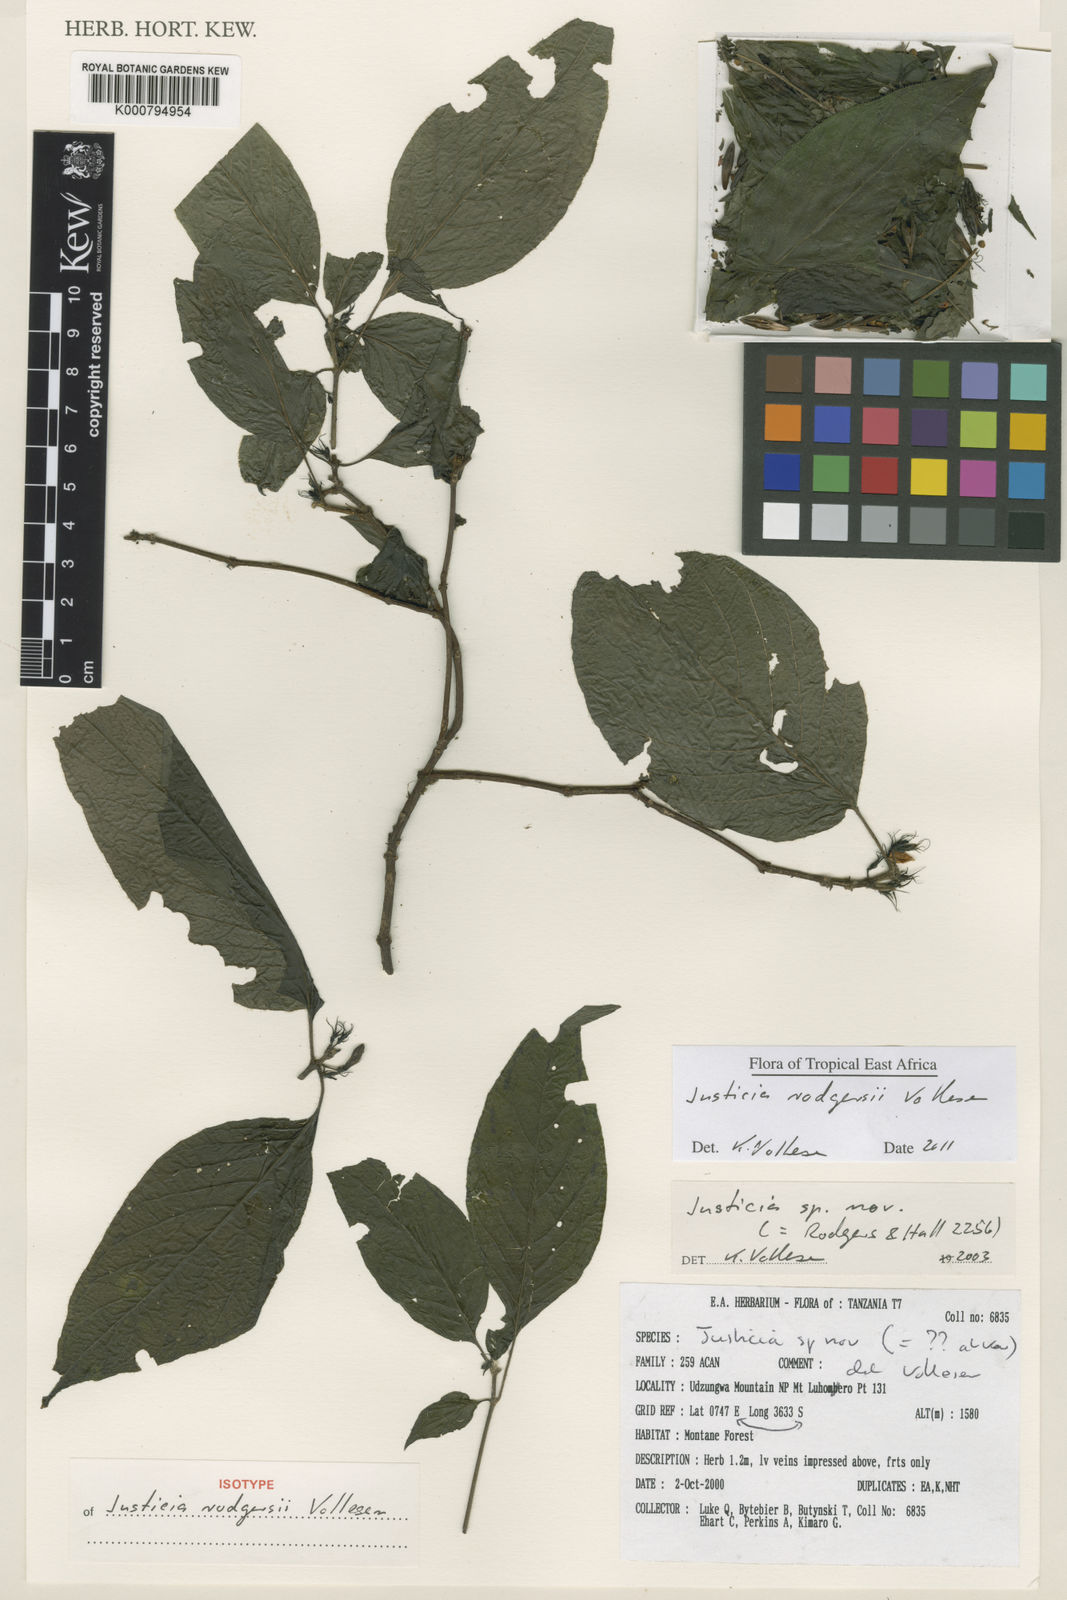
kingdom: Plantae
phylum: Tracheophyta
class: Magnoliopsida
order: Lamiales
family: Acanthaceae
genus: Justicia
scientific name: Justicia rodgersii
